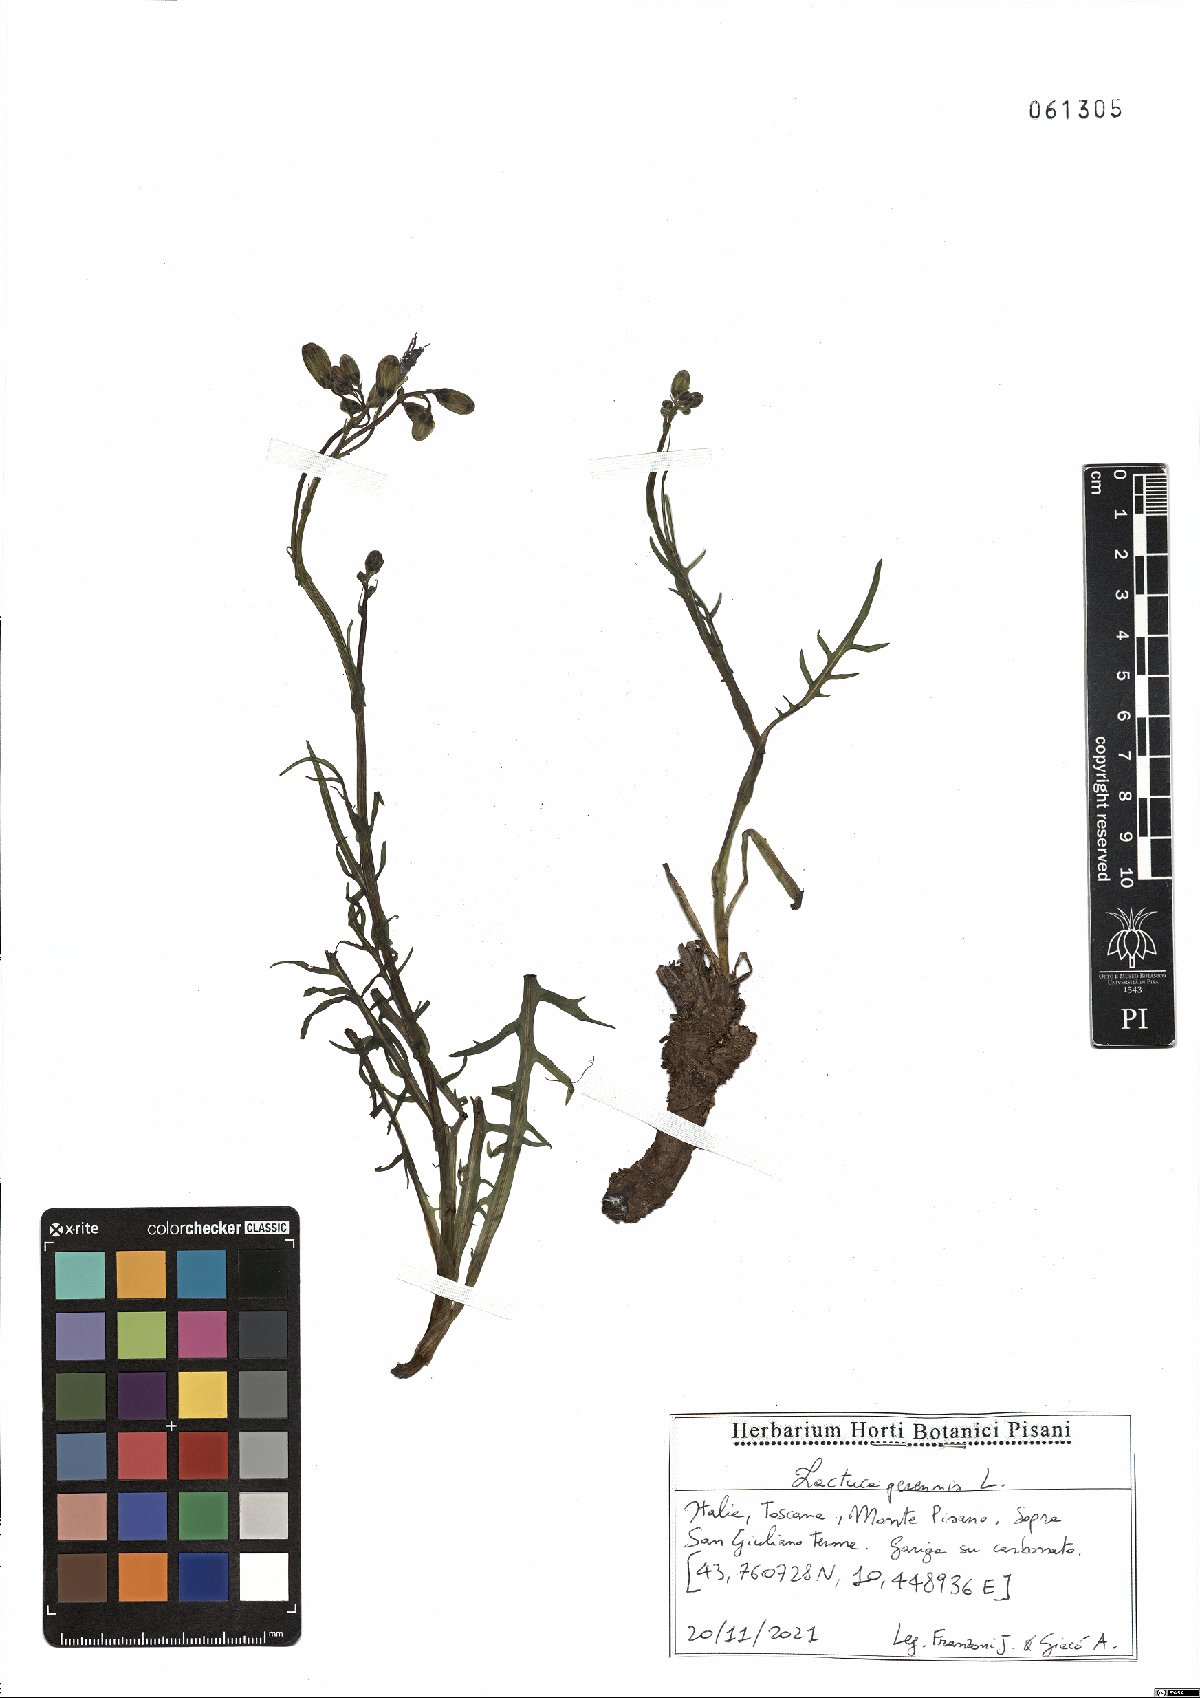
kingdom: Plantae
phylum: Tracheophyta
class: Magnoliopsida
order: Asterales
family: Asteraceae
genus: Lactuca
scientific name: Lactuca perennis
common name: Mountain lettuce
